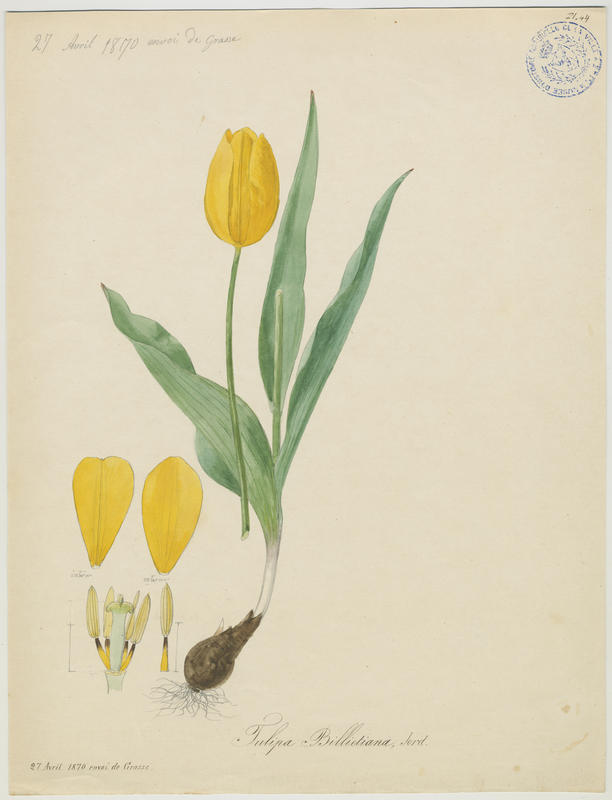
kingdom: Plantae
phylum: Tracheophyta
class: Liliopsida
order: Liliales
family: Liliaceae
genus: Tulipa
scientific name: Tulipa gesneriana
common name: Garden tulip
